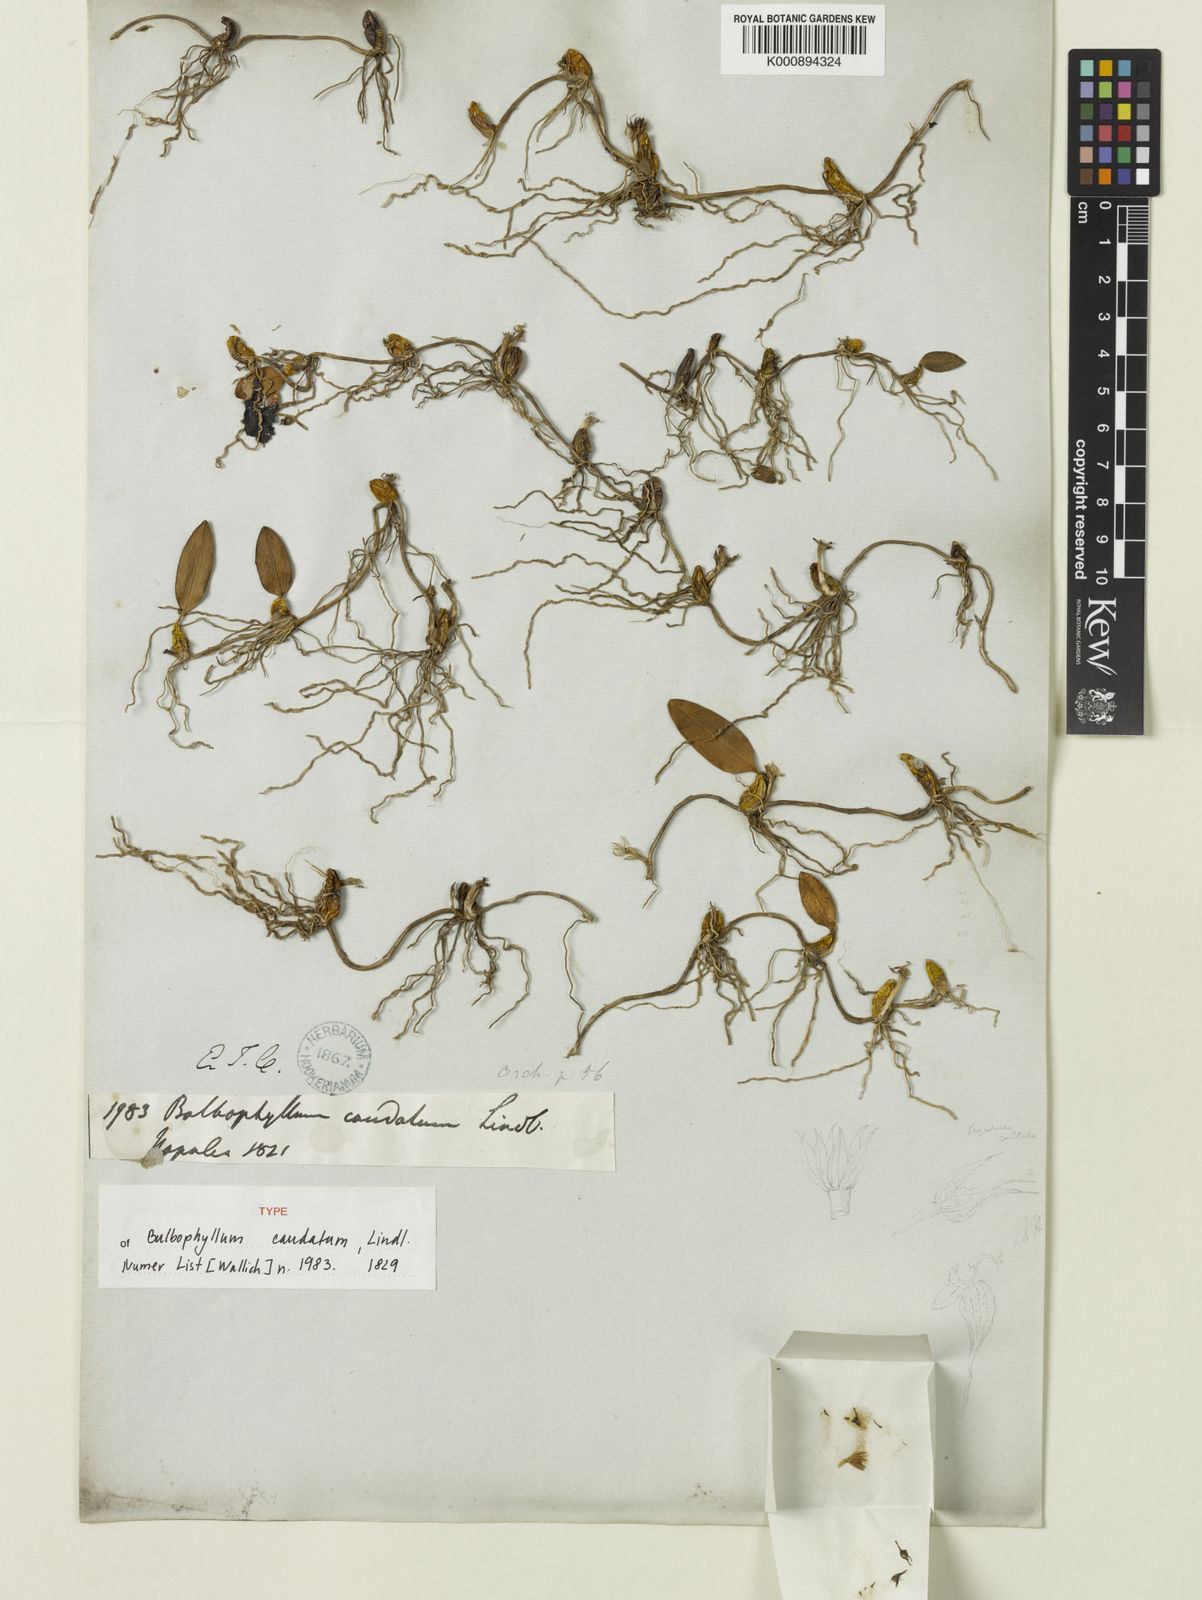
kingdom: Plantae
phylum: Tracheophyta
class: Liliopsida
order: Asparagales
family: Orchidaceae
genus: Bulbophyllum
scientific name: Bulbophyllum caudatum
